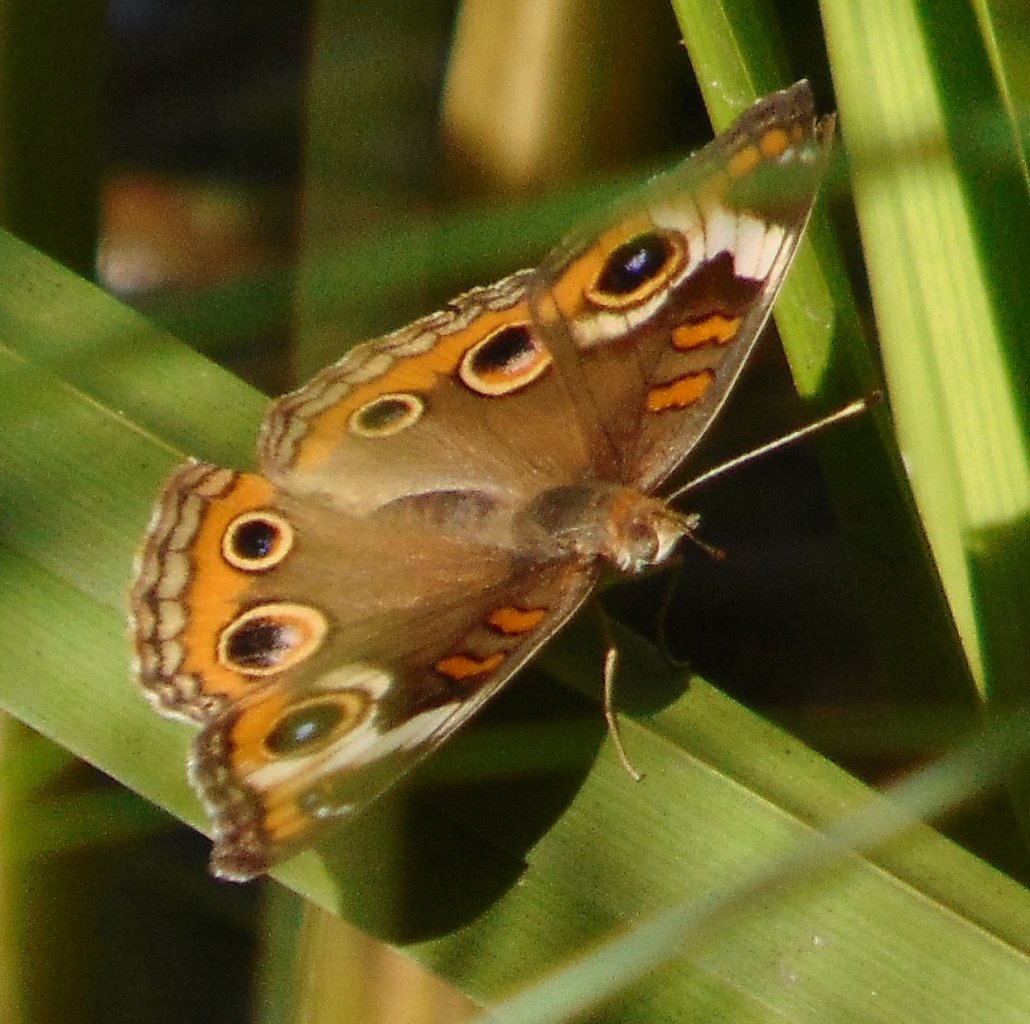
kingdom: Animalia
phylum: Arthropoda
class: Insecta
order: Lepidoptera
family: Nymphalidae
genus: Junonia
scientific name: Junonia coenia
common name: Common Buckeye
